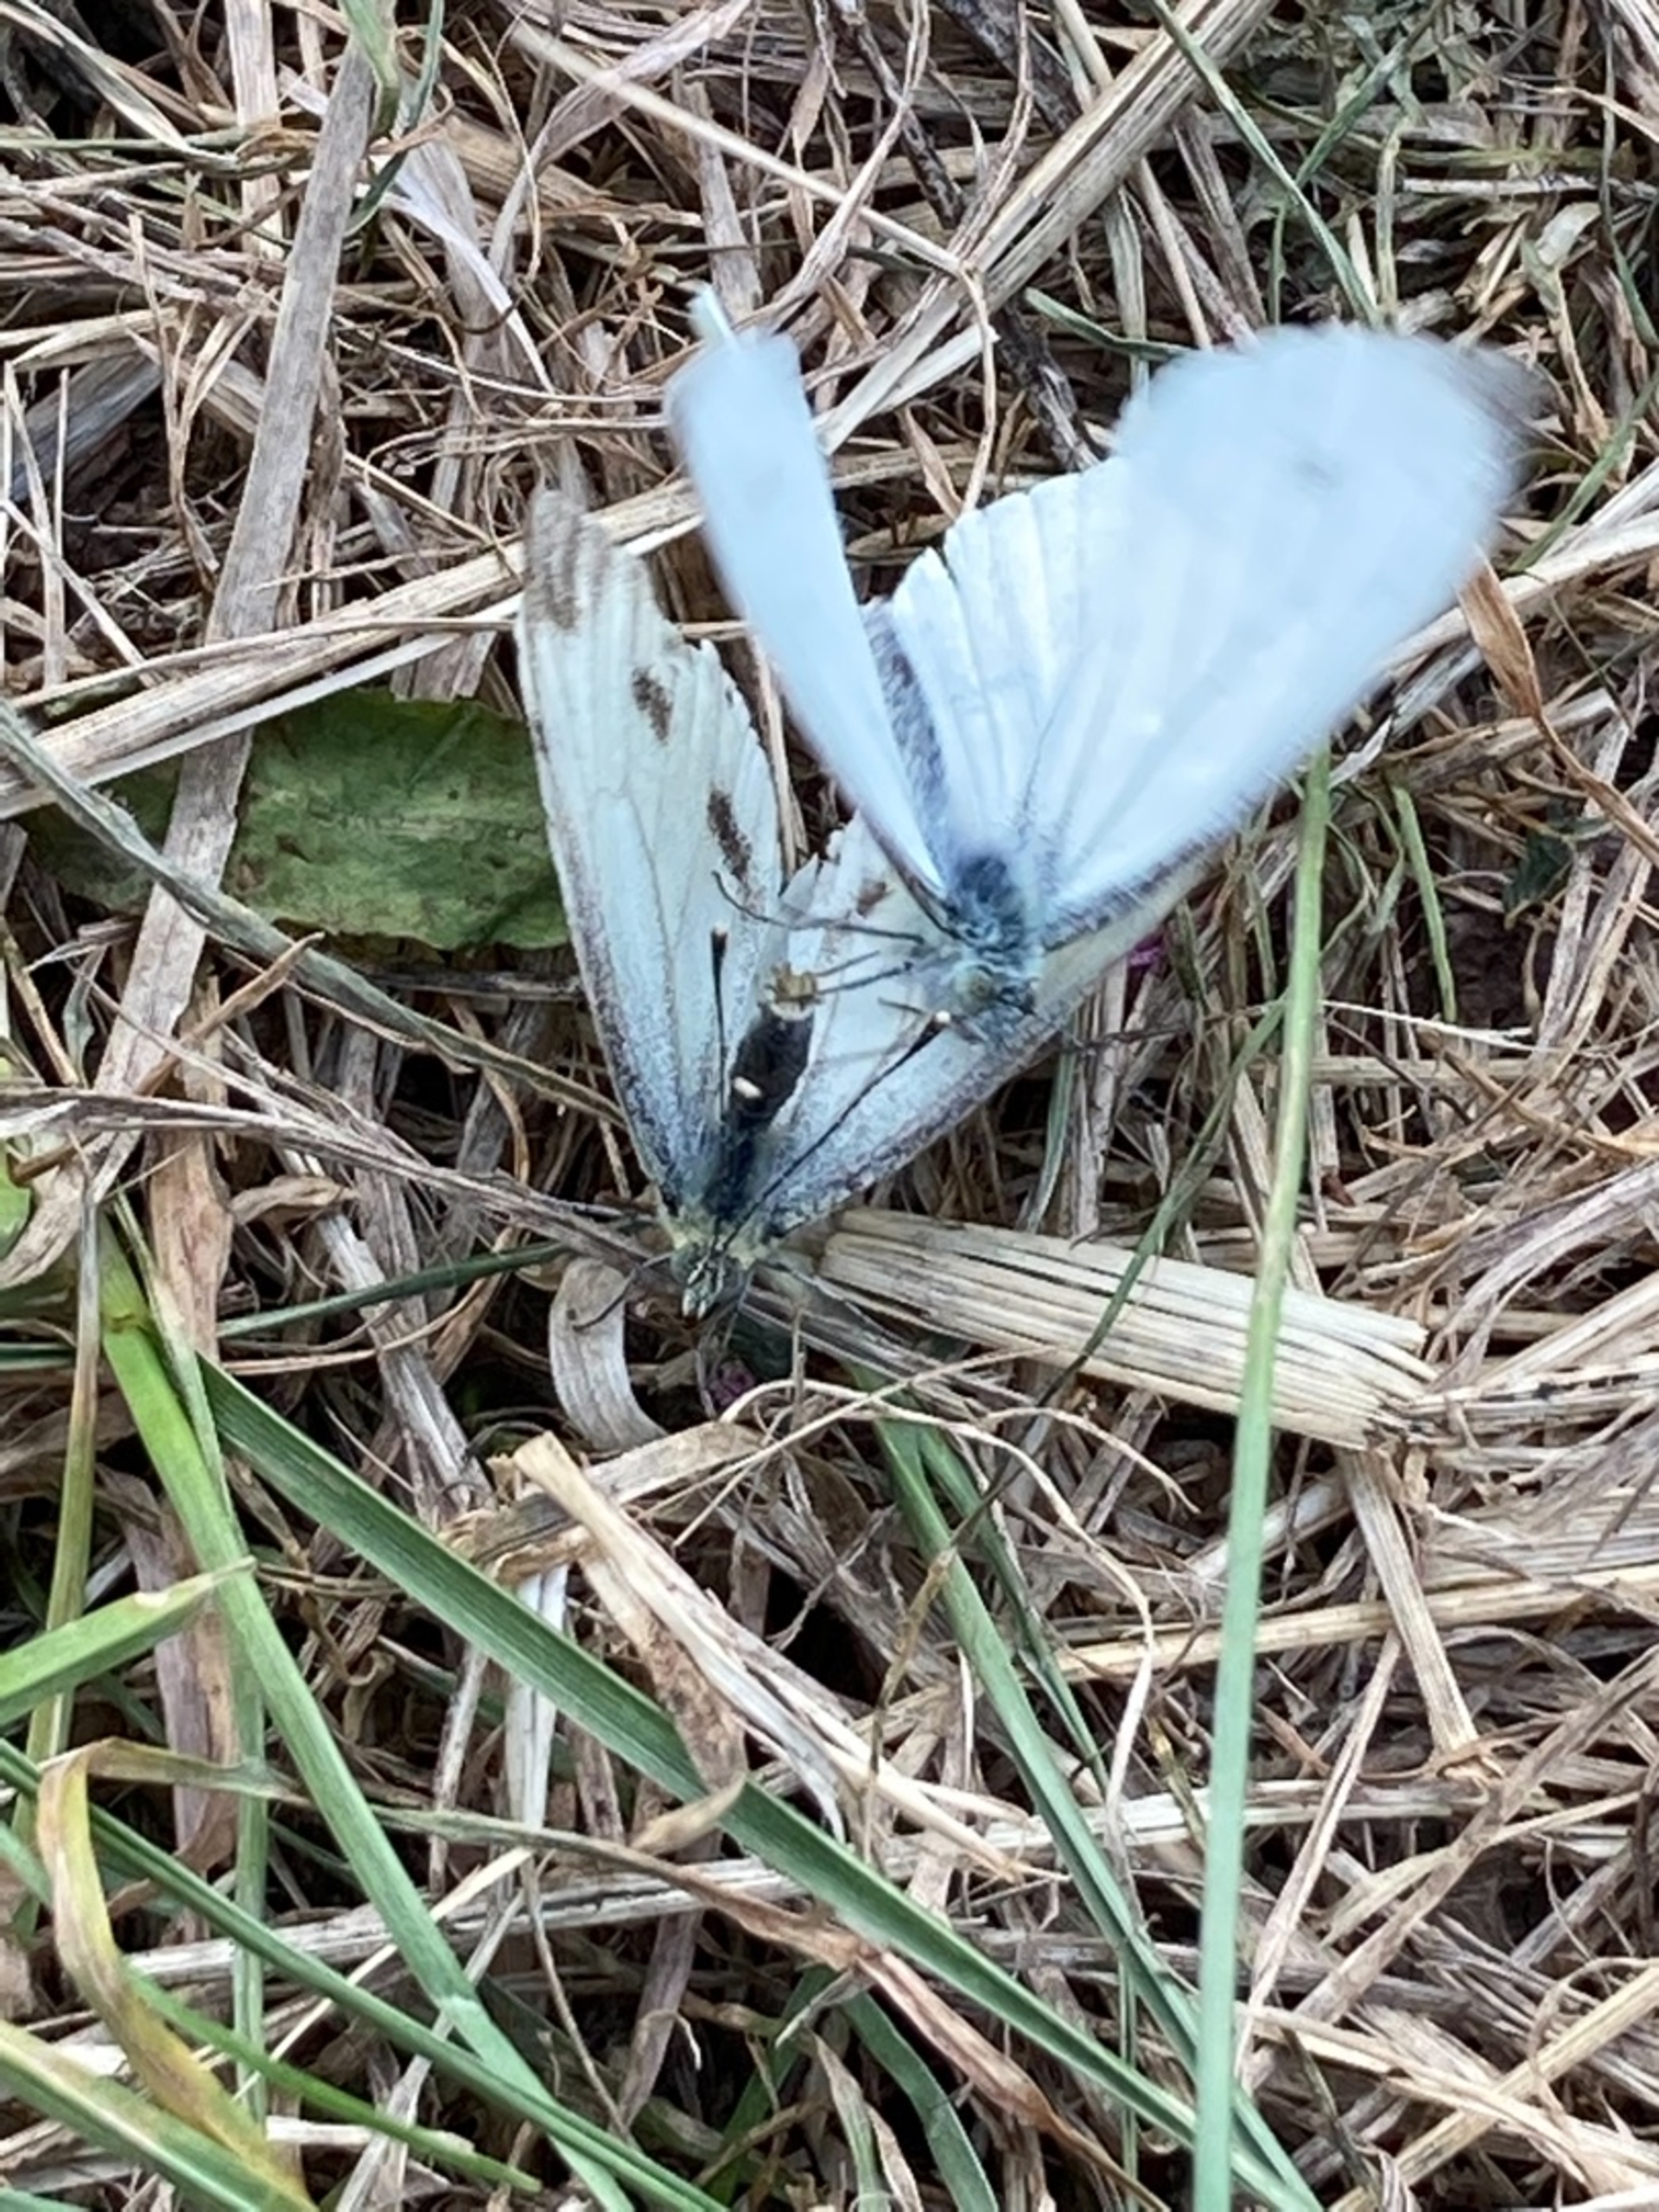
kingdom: Animalia
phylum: Arthropoda
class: Insecta
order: Lepidoptera
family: Pieridae
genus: Pieris
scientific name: Pieris napi
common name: Grønåret kålsommerfugl
